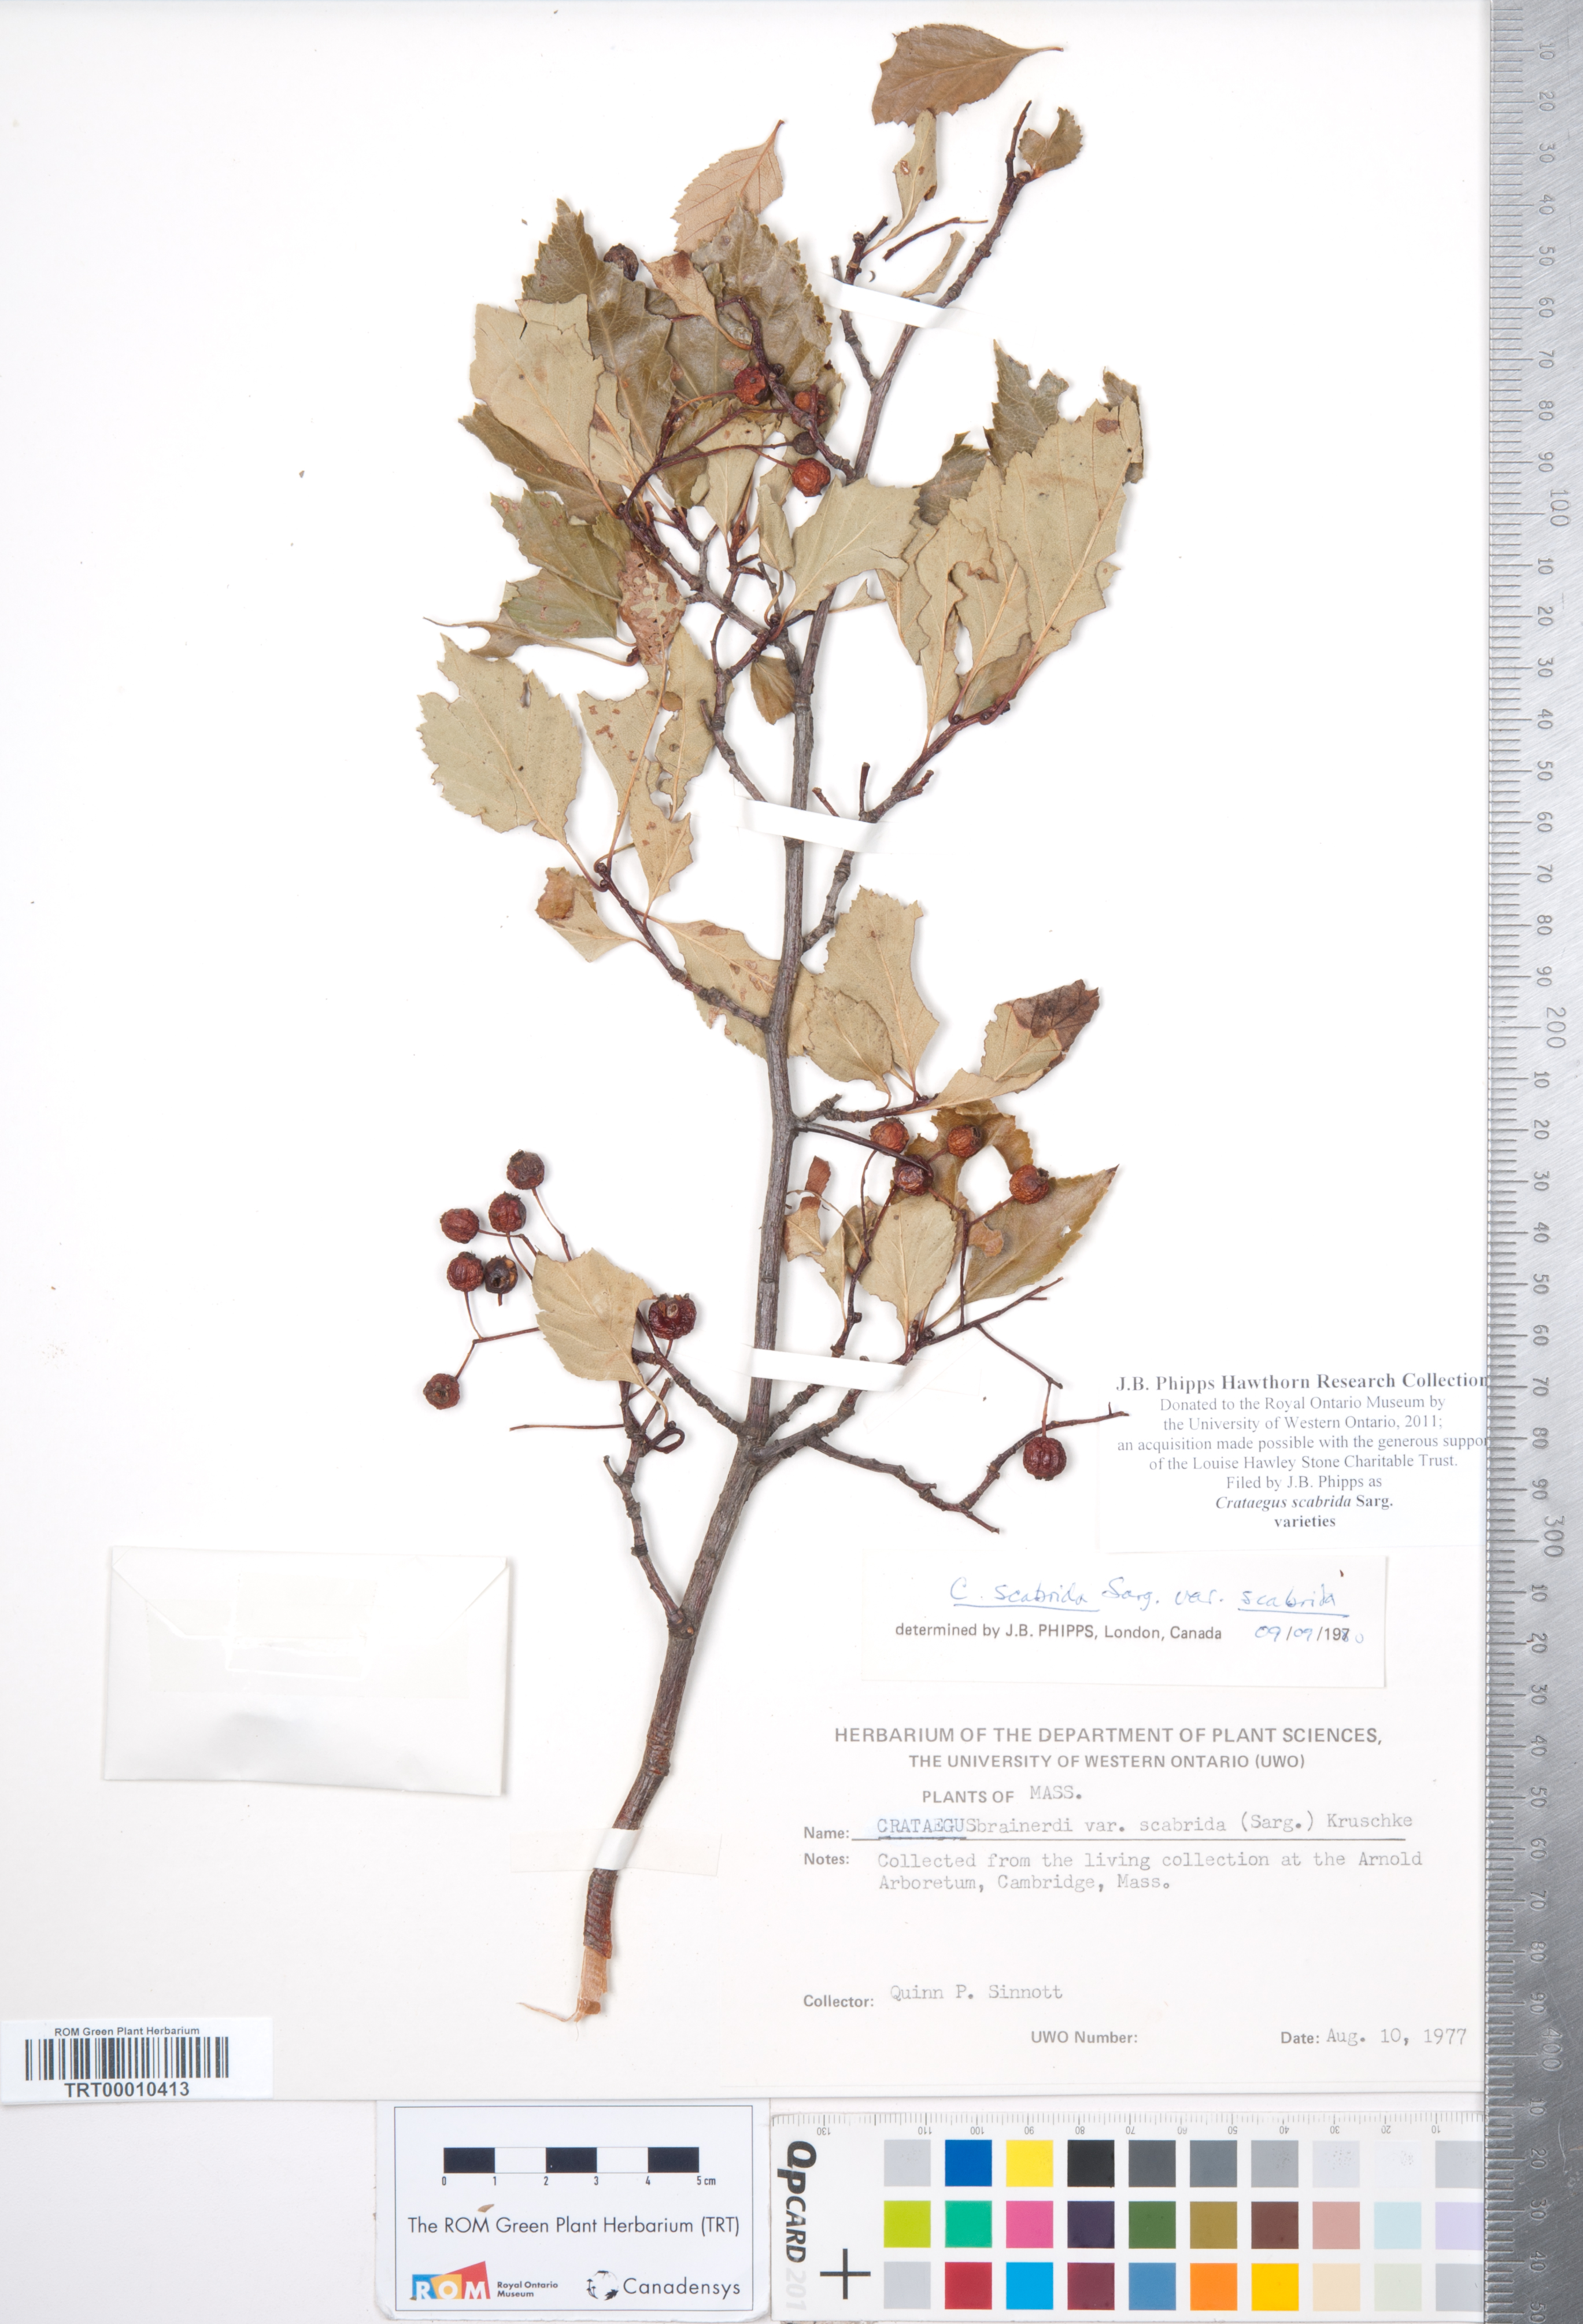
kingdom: Plantae
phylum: Tracheophyta
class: Magnoliopsida
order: Rosales
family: Rosaceae
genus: Crataegus
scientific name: Crataegus scabrida
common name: Rough hawthorn
